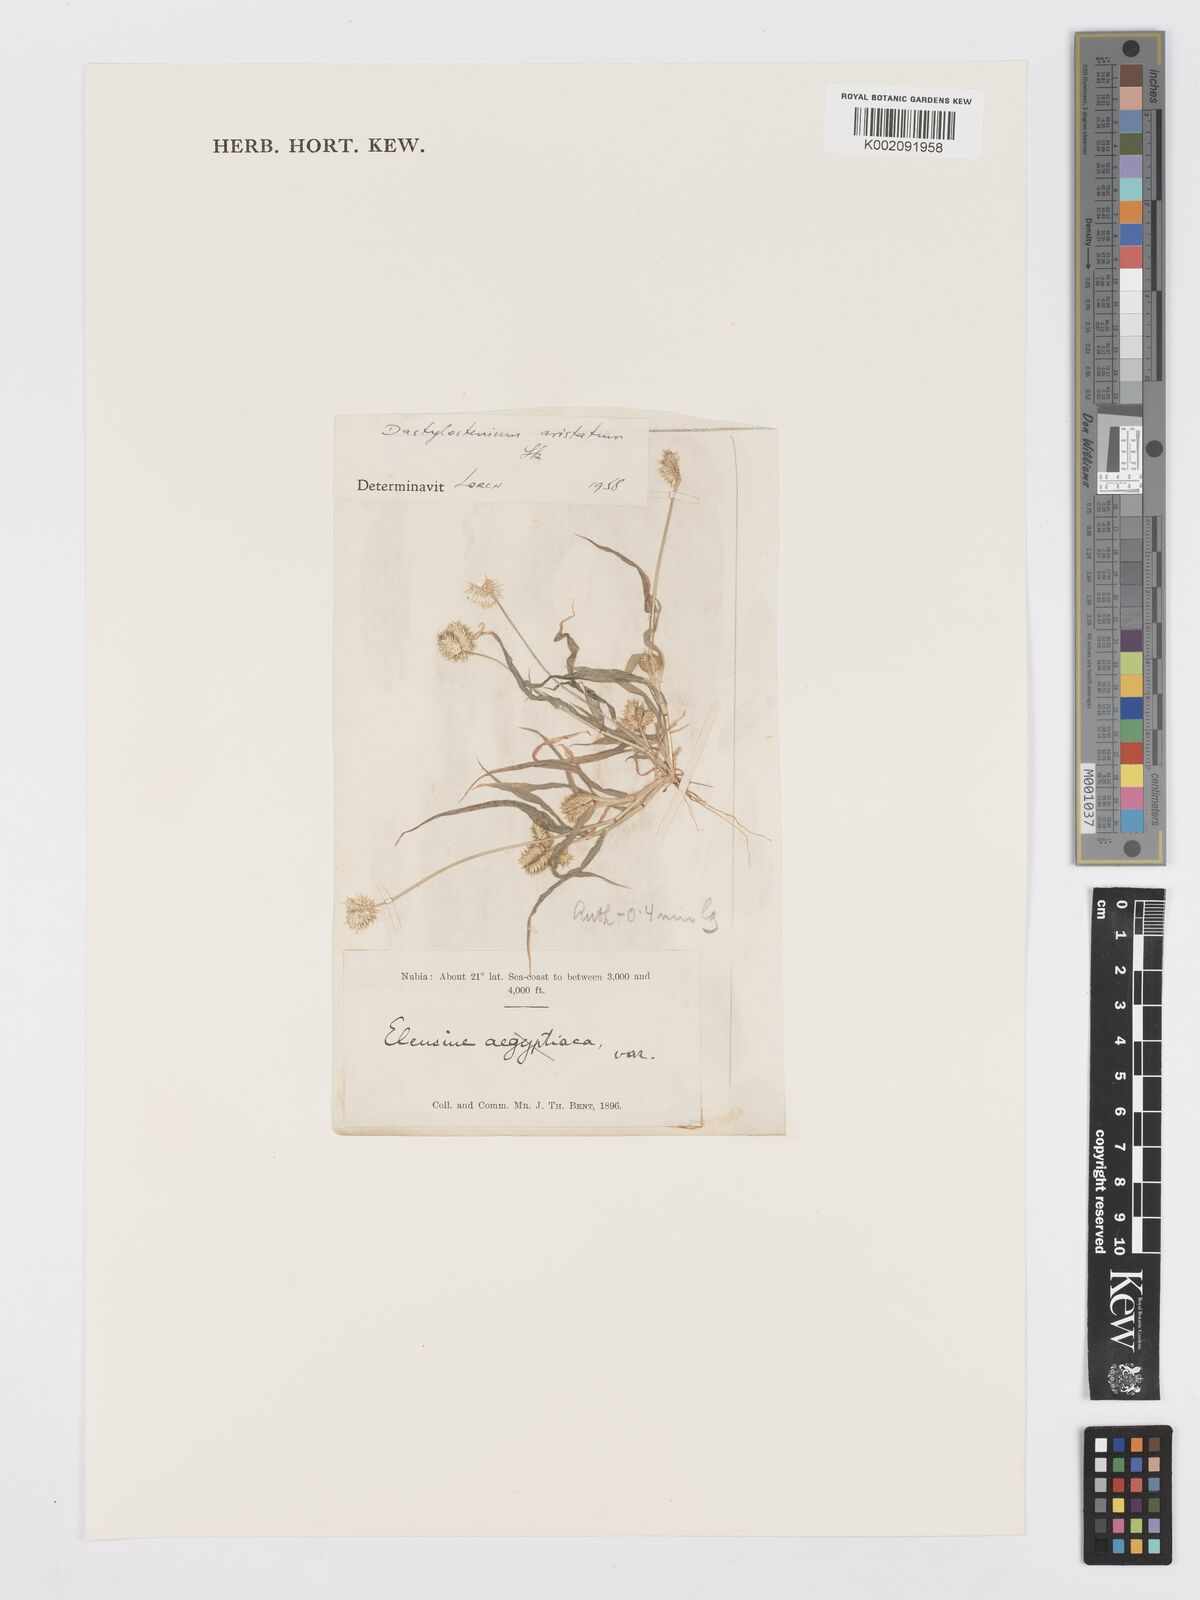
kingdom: Plantae
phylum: Tracheophyta
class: Liliopsida
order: Poales
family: Poaceae
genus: Dactyloctenium
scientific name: Dactyloctenium aristatum
